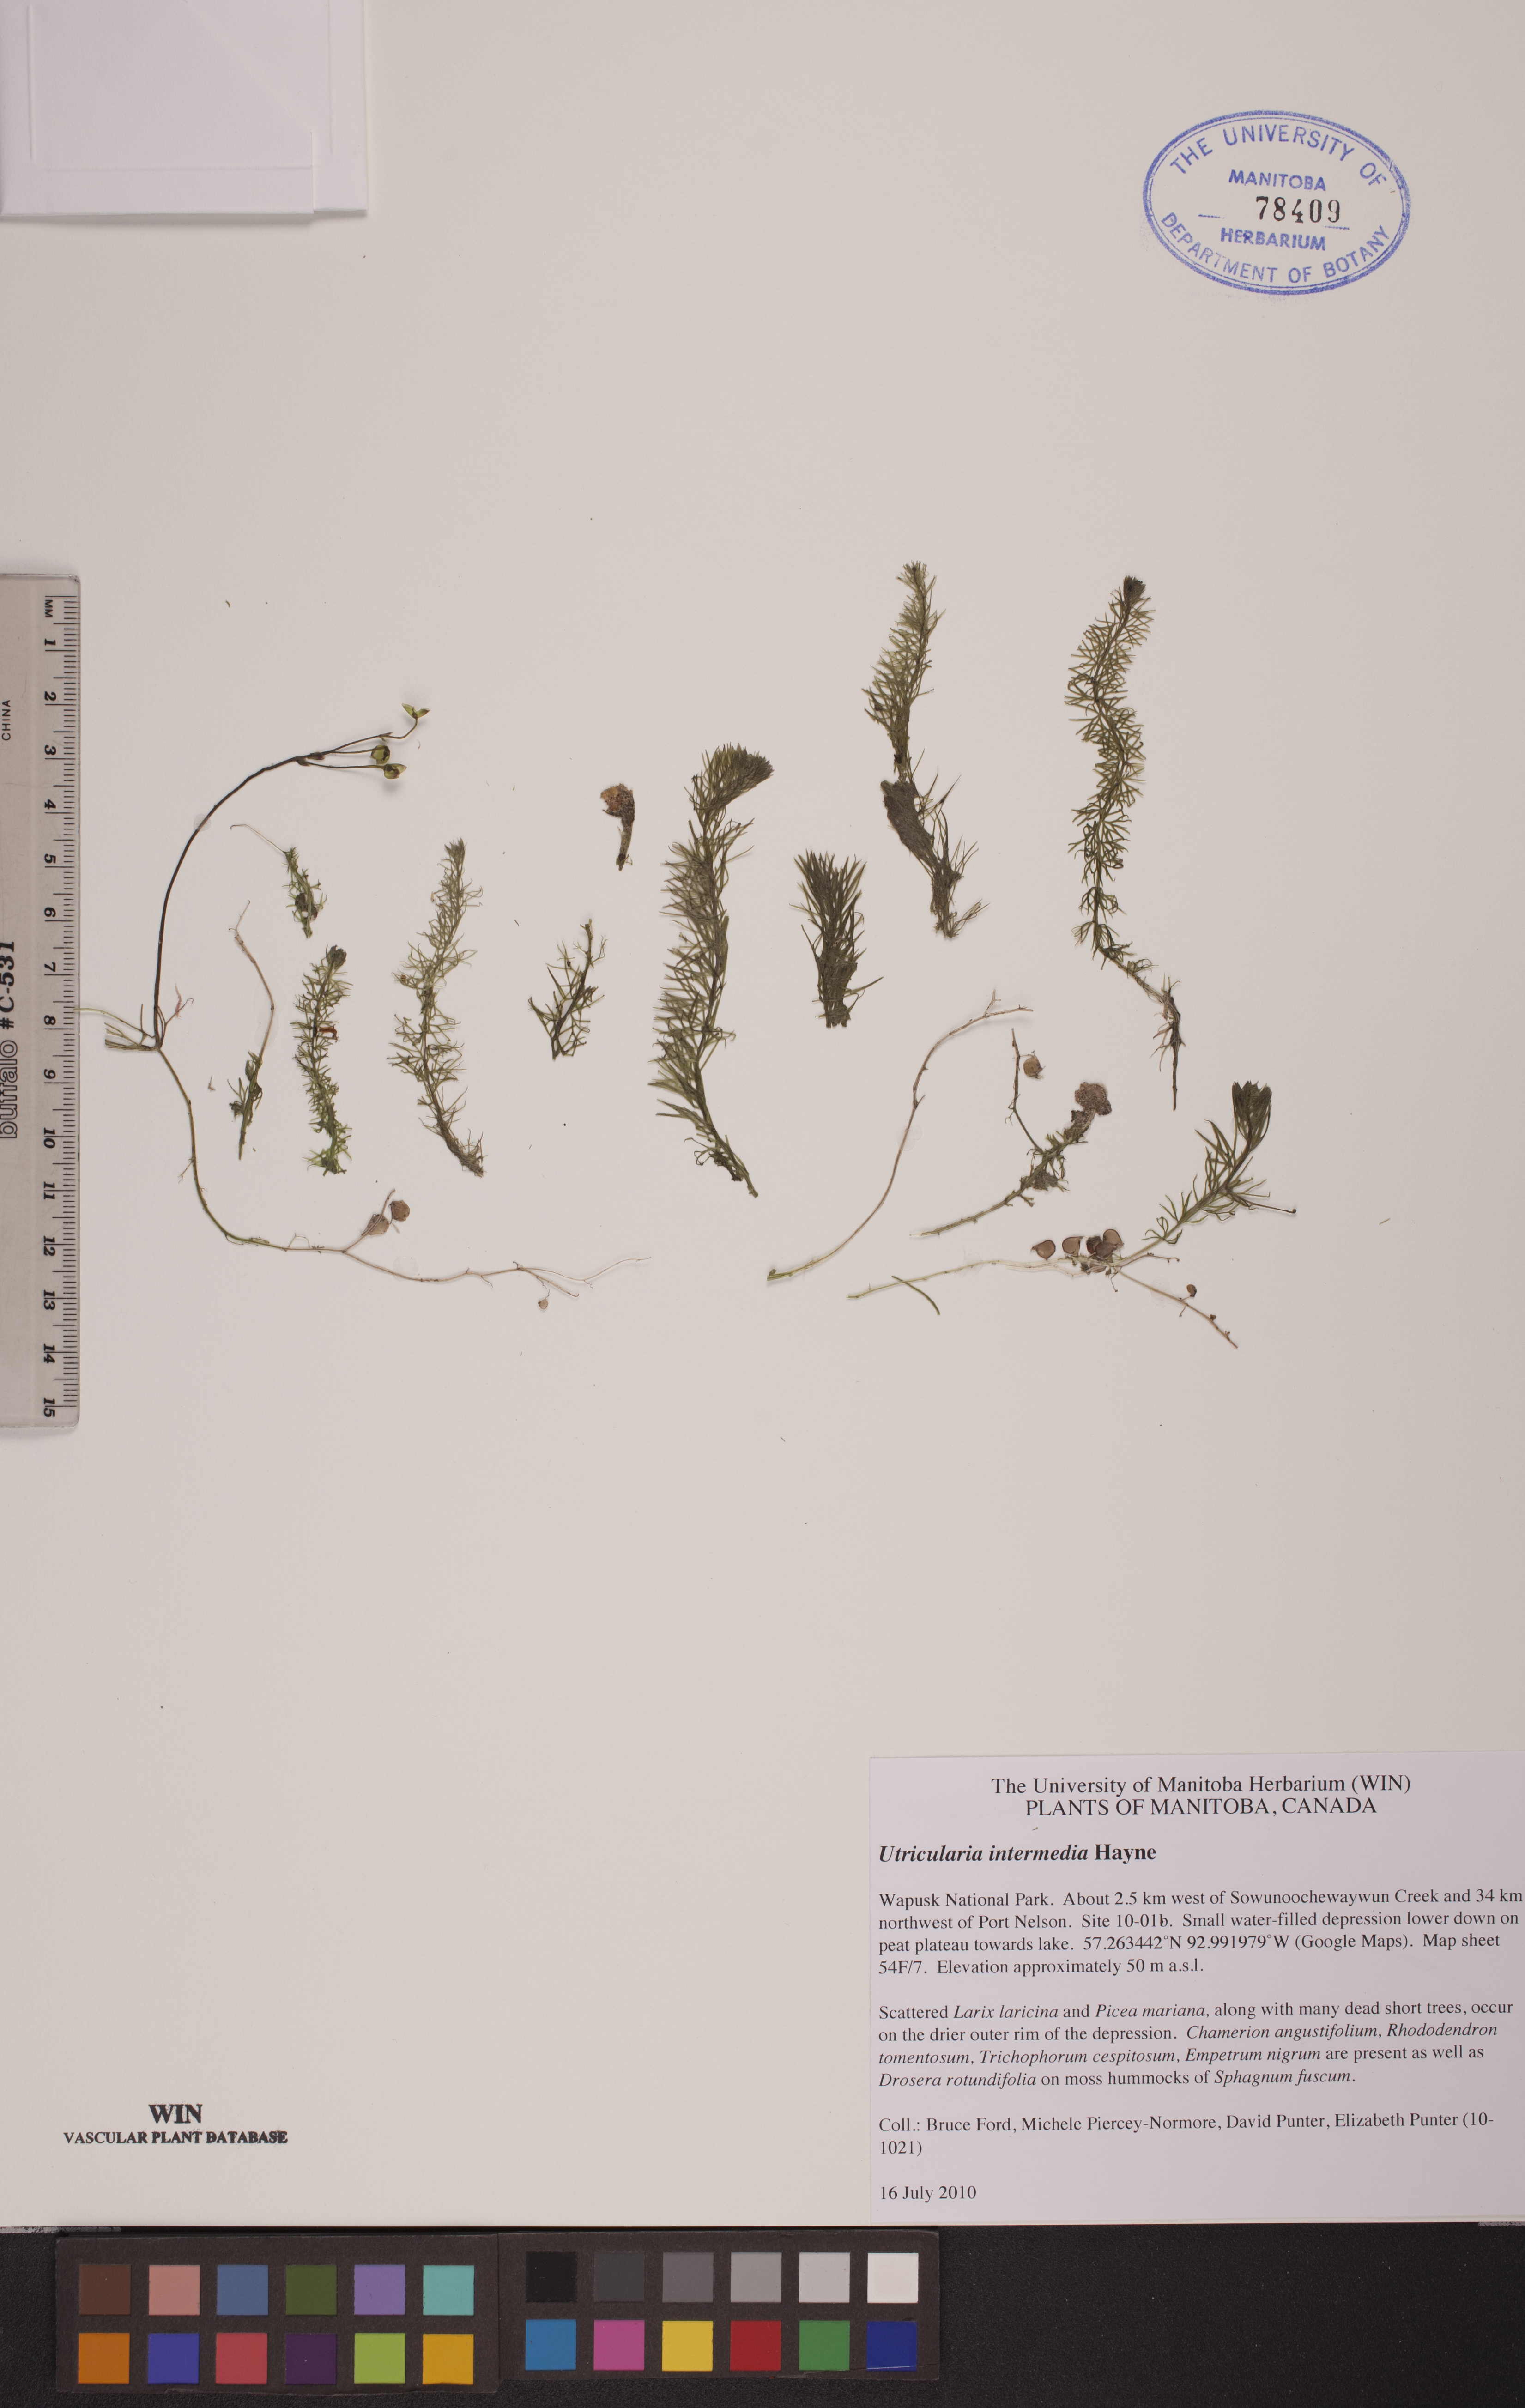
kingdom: Plantae
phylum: Tracheophyta
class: Magnoliopsida
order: Lamiales
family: Lentibulariaceae
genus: Utricularia
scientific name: Utricularia intermedia
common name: Intermediate bladderwort
